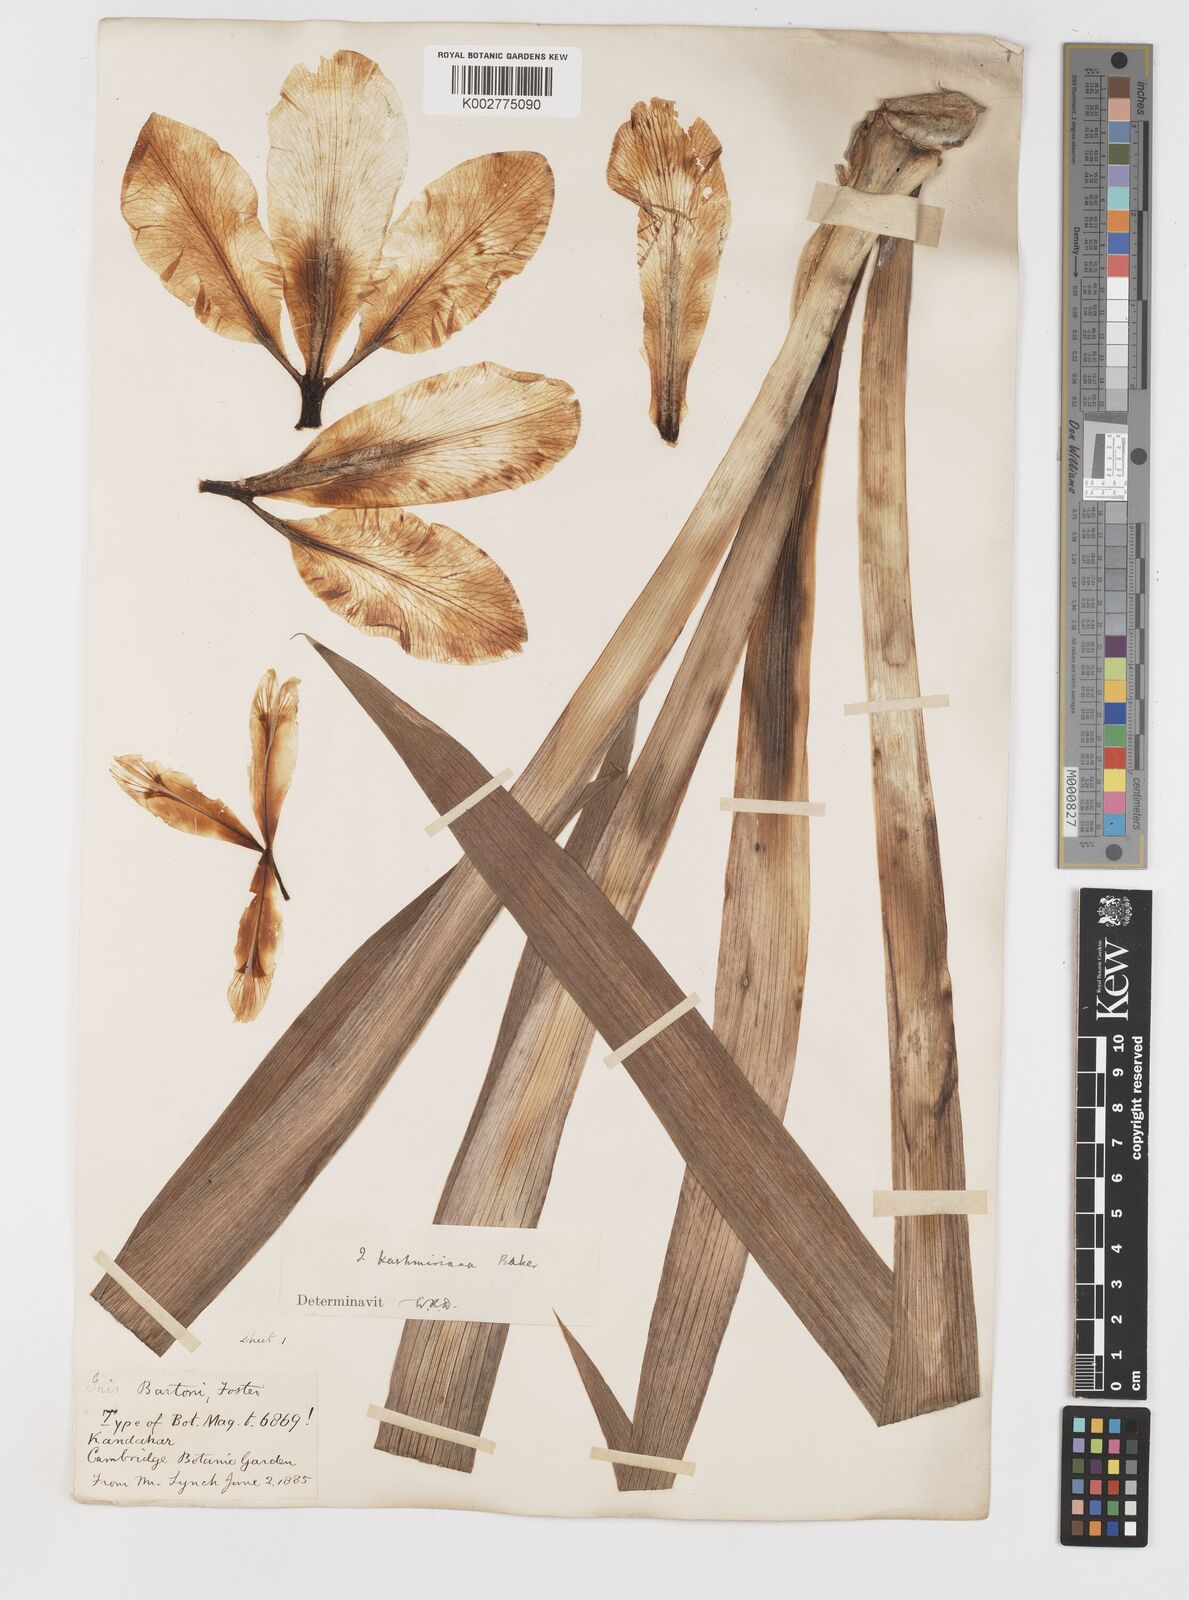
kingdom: Plantae
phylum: Tracheophyta
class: Liliopsida
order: Asparagales
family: Iridaceae
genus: Iris
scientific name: Iris kashmiriana
